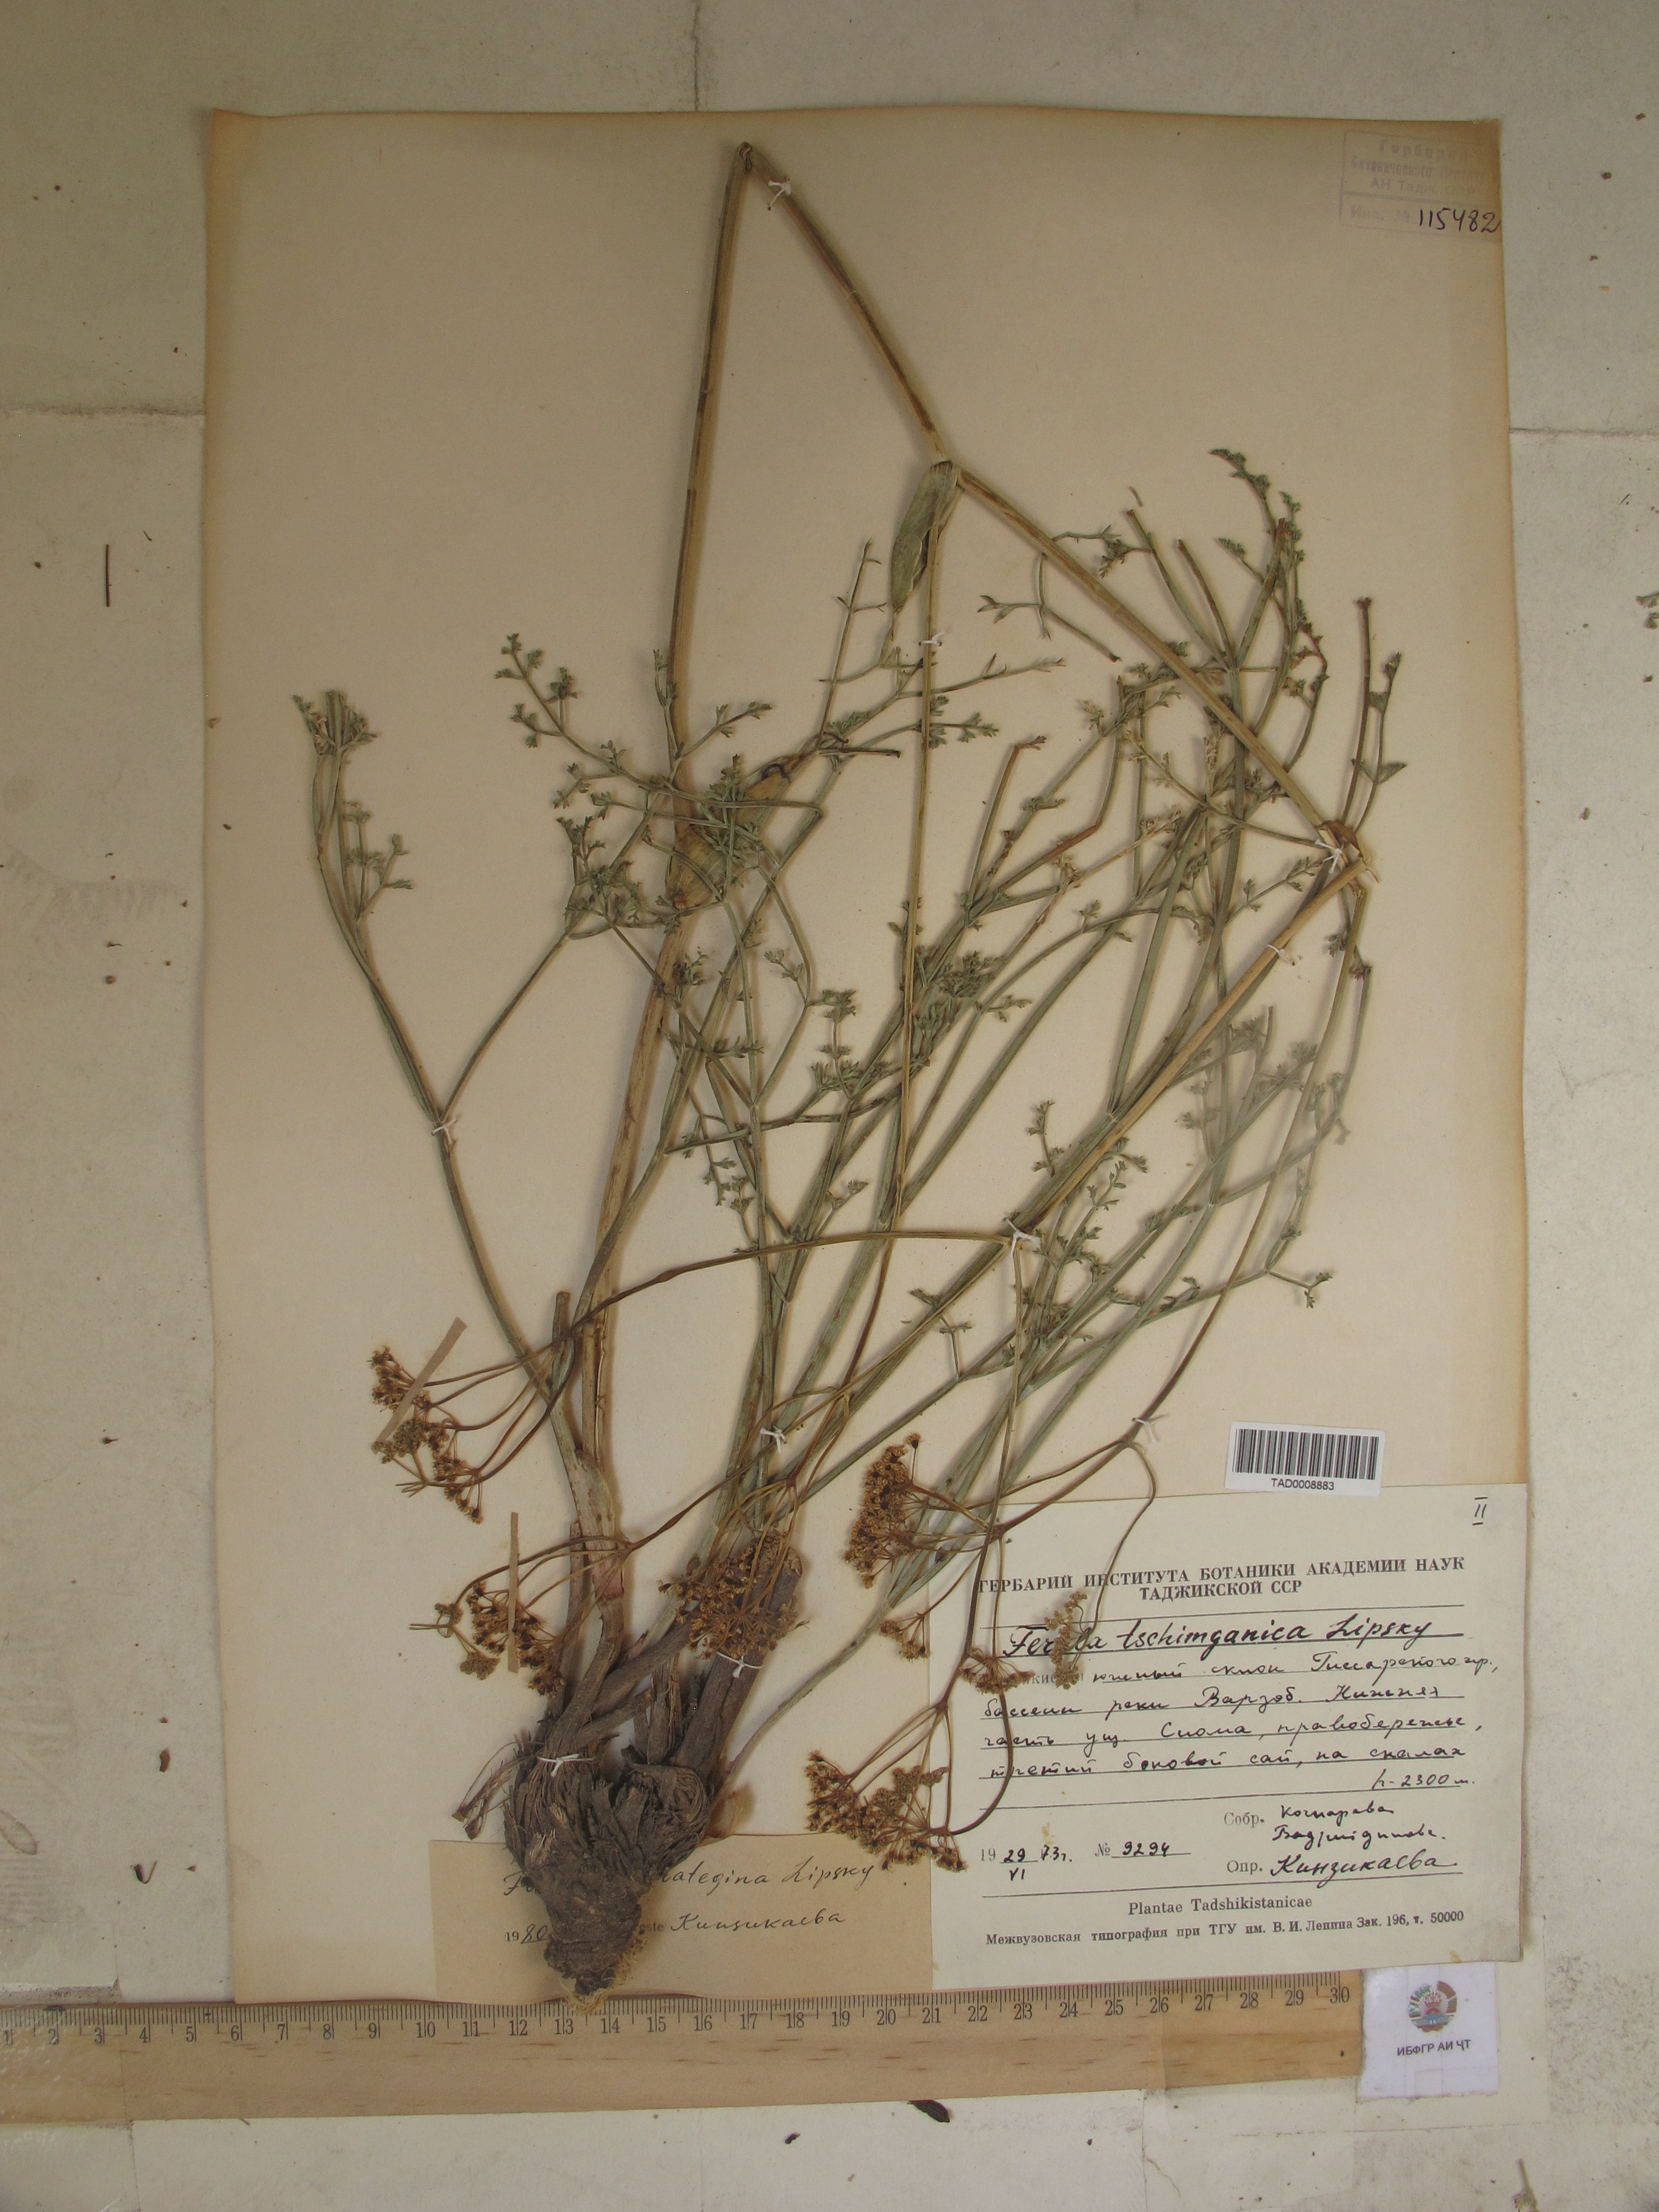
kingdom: Plantae
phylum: Tracheophyta
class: Magnoliopsida
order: Apiales
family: Apiaceae
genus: Ferula
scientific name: Ferula tschimganica
